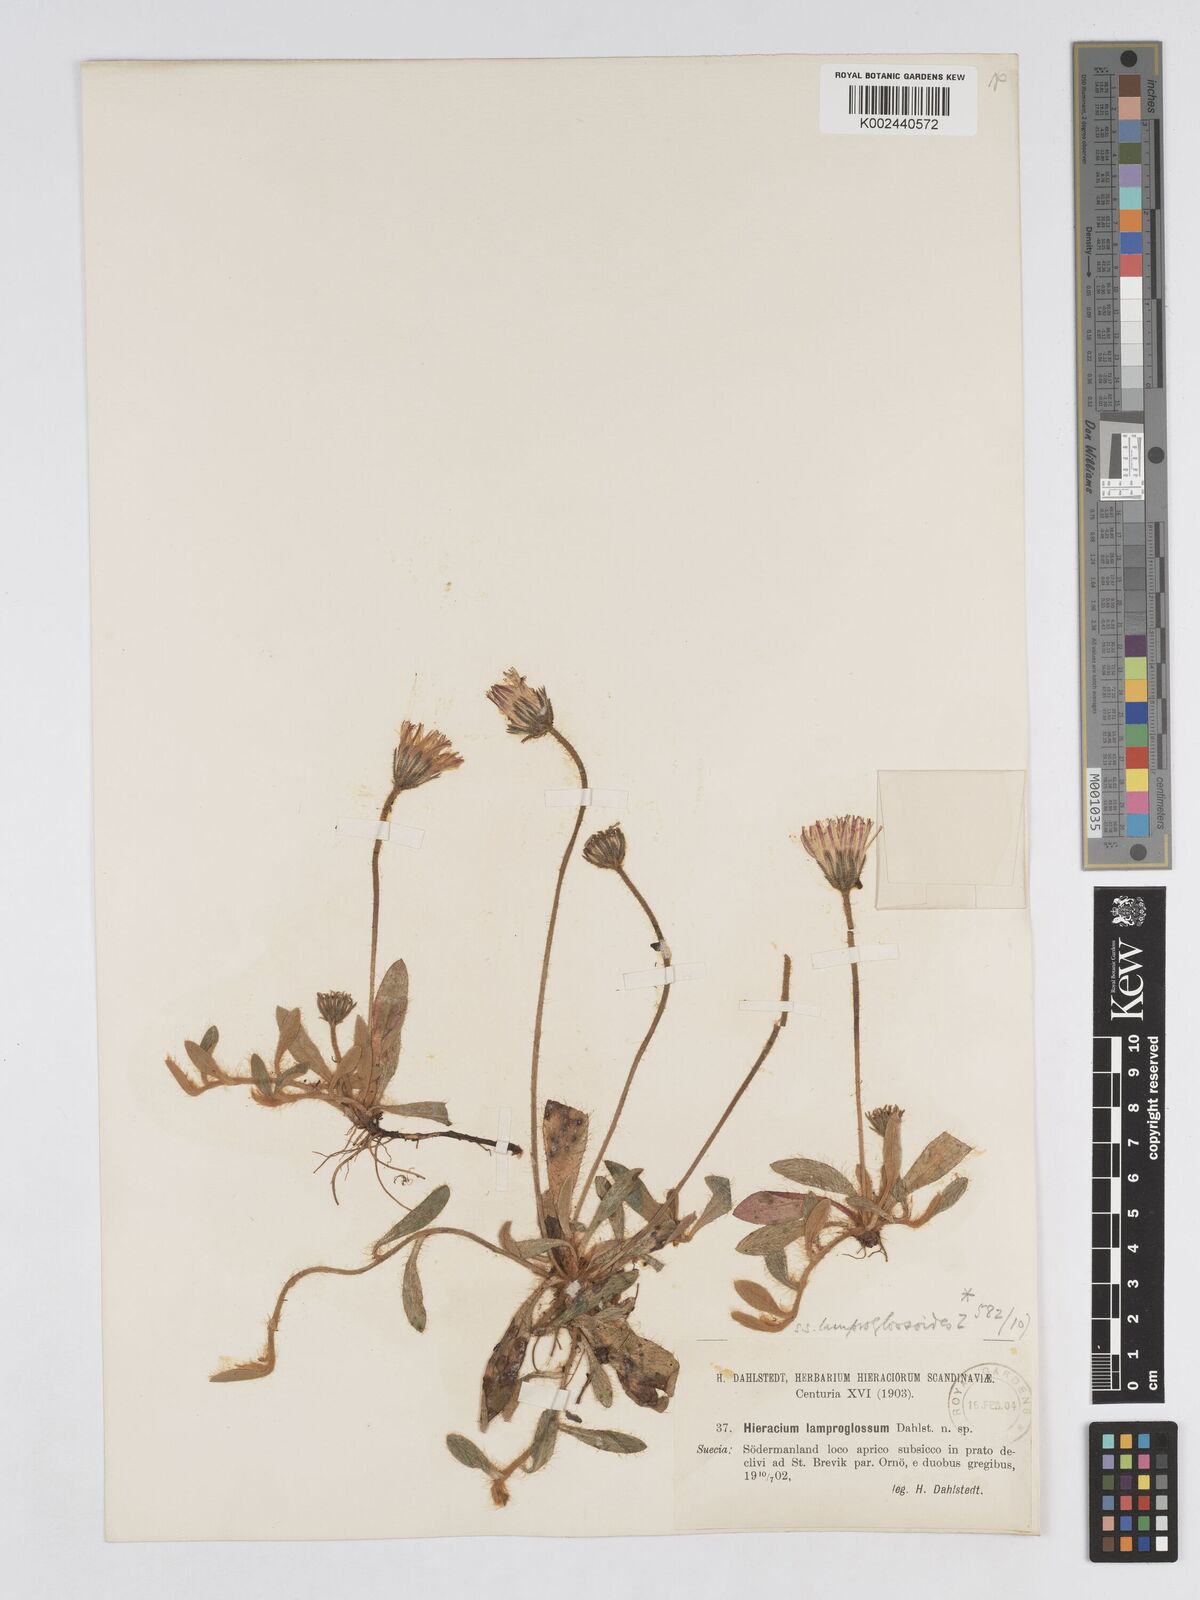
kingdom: Plantae
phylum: Tracheophyta
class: Magnoliopsida
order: Asterales
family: Asteraceae
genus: Pilosella
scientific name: Pilosella longisquama
